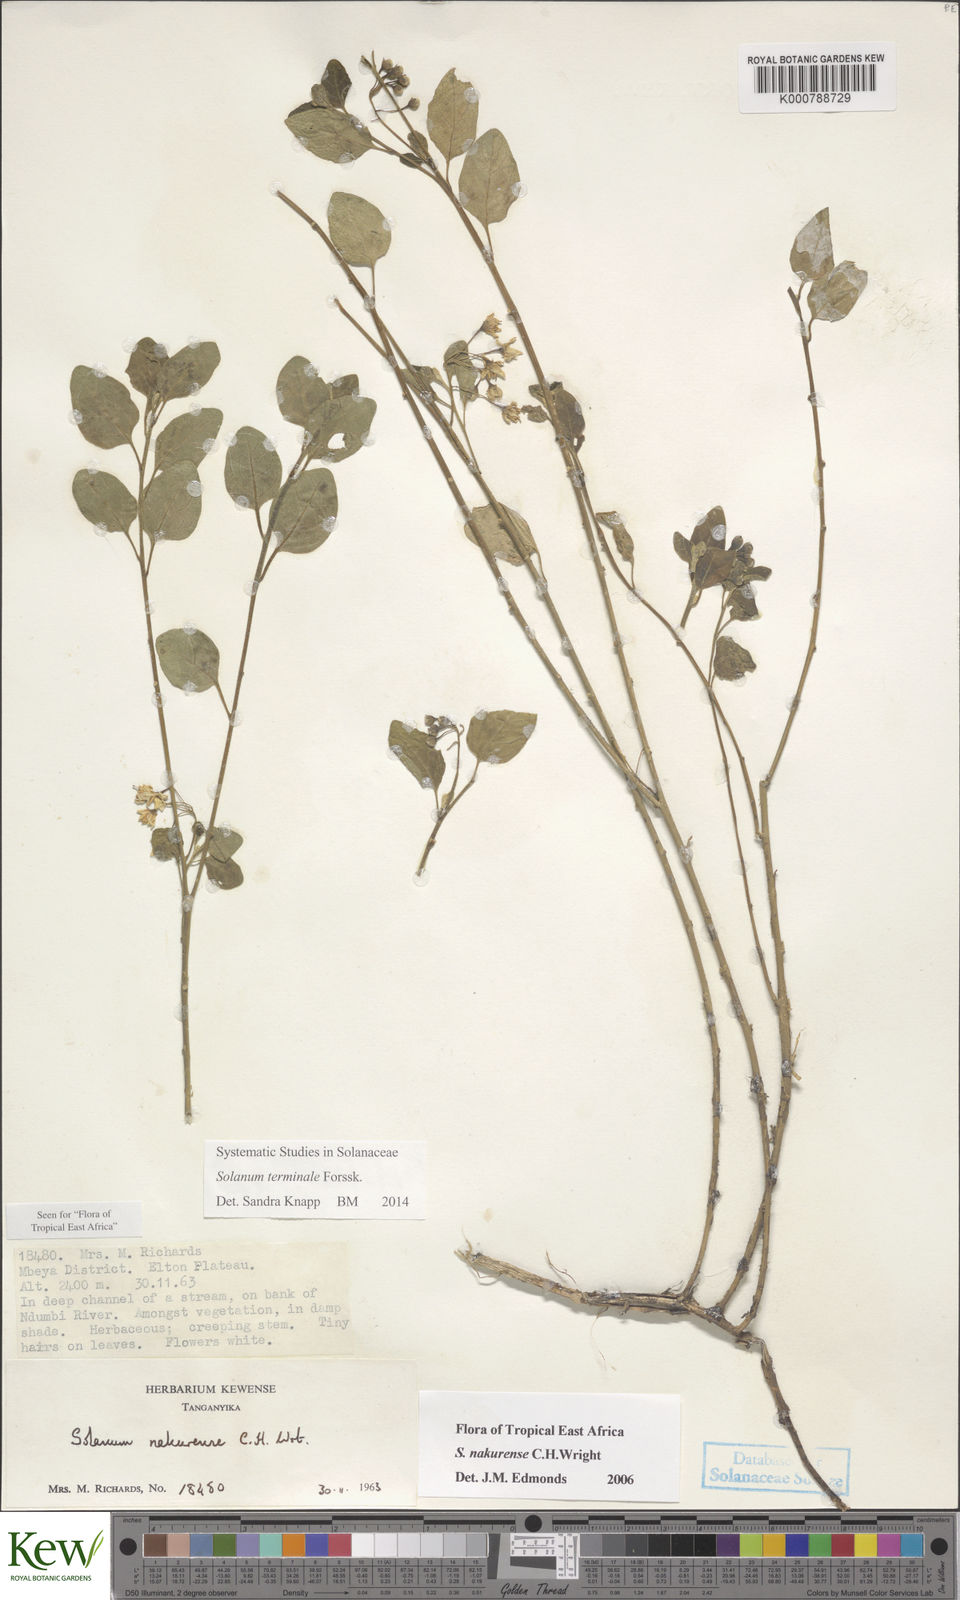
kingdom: Plantae
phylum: Tracheophyta
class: Magnoliopsida
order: Solanales
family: Solanaceae
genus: Solanum
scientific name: Solanum terminale
